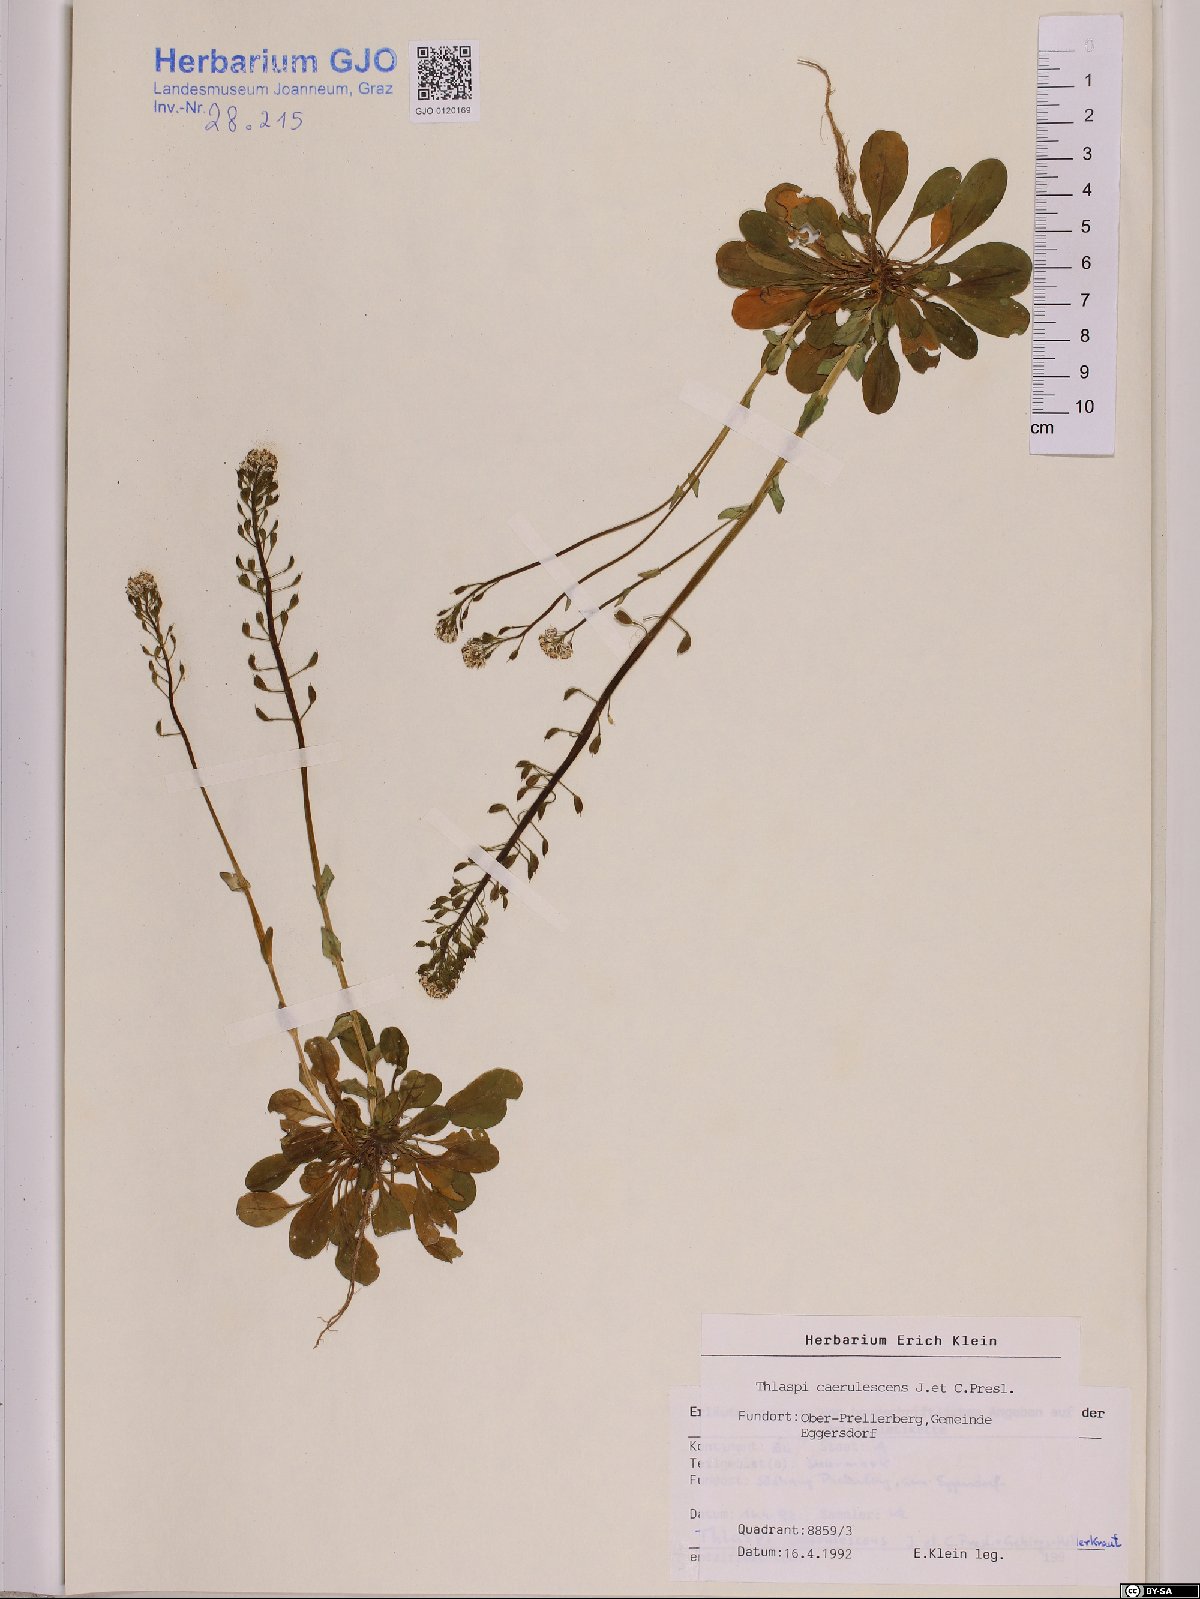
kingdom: Plantae
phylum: Tracheophyta
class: Magnoliopsida
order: Brassicales
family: Brassicaceae
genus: Noccaea
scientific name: Noccaea caerulescens
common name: Alpine pennycress
